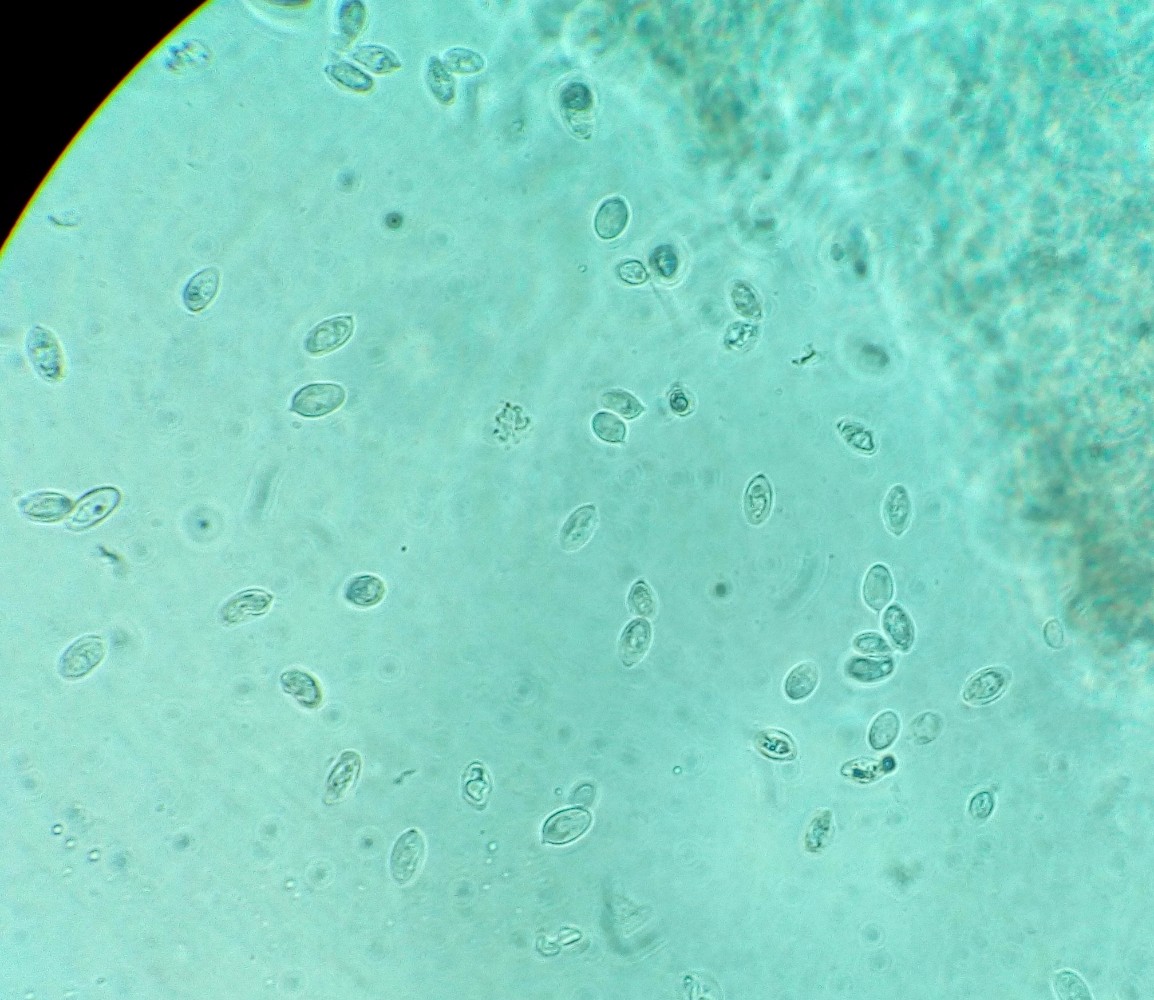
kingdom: Fungi
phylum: Basidiomycota
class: Agaricomycetes
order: Agaricales
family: Entolomataceae
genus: Clitopilus
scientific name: Clitopilus hobsonii
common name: Miller's oysterling
